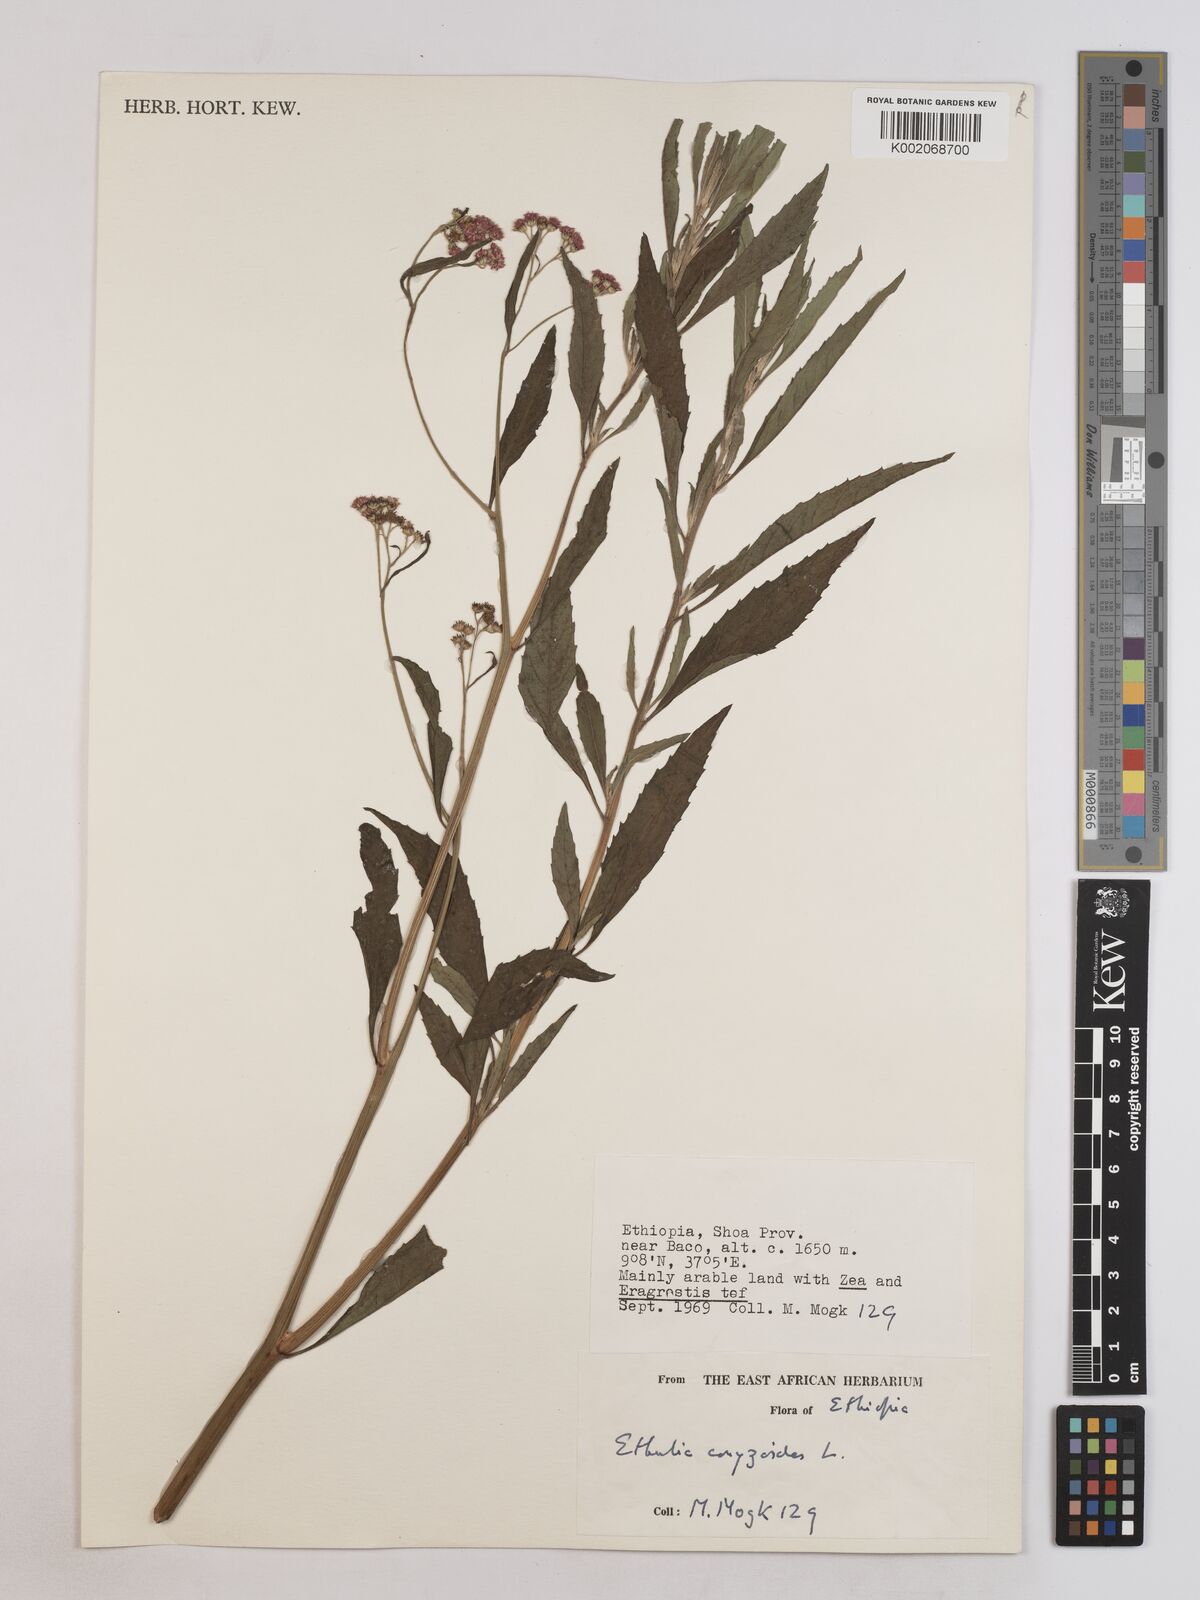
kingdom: Plantae
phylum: Tracheophyta
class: Magnoliopsida
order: Asterales
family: Asteraceae
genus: Ethulia
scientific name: Ethulia gracilis
